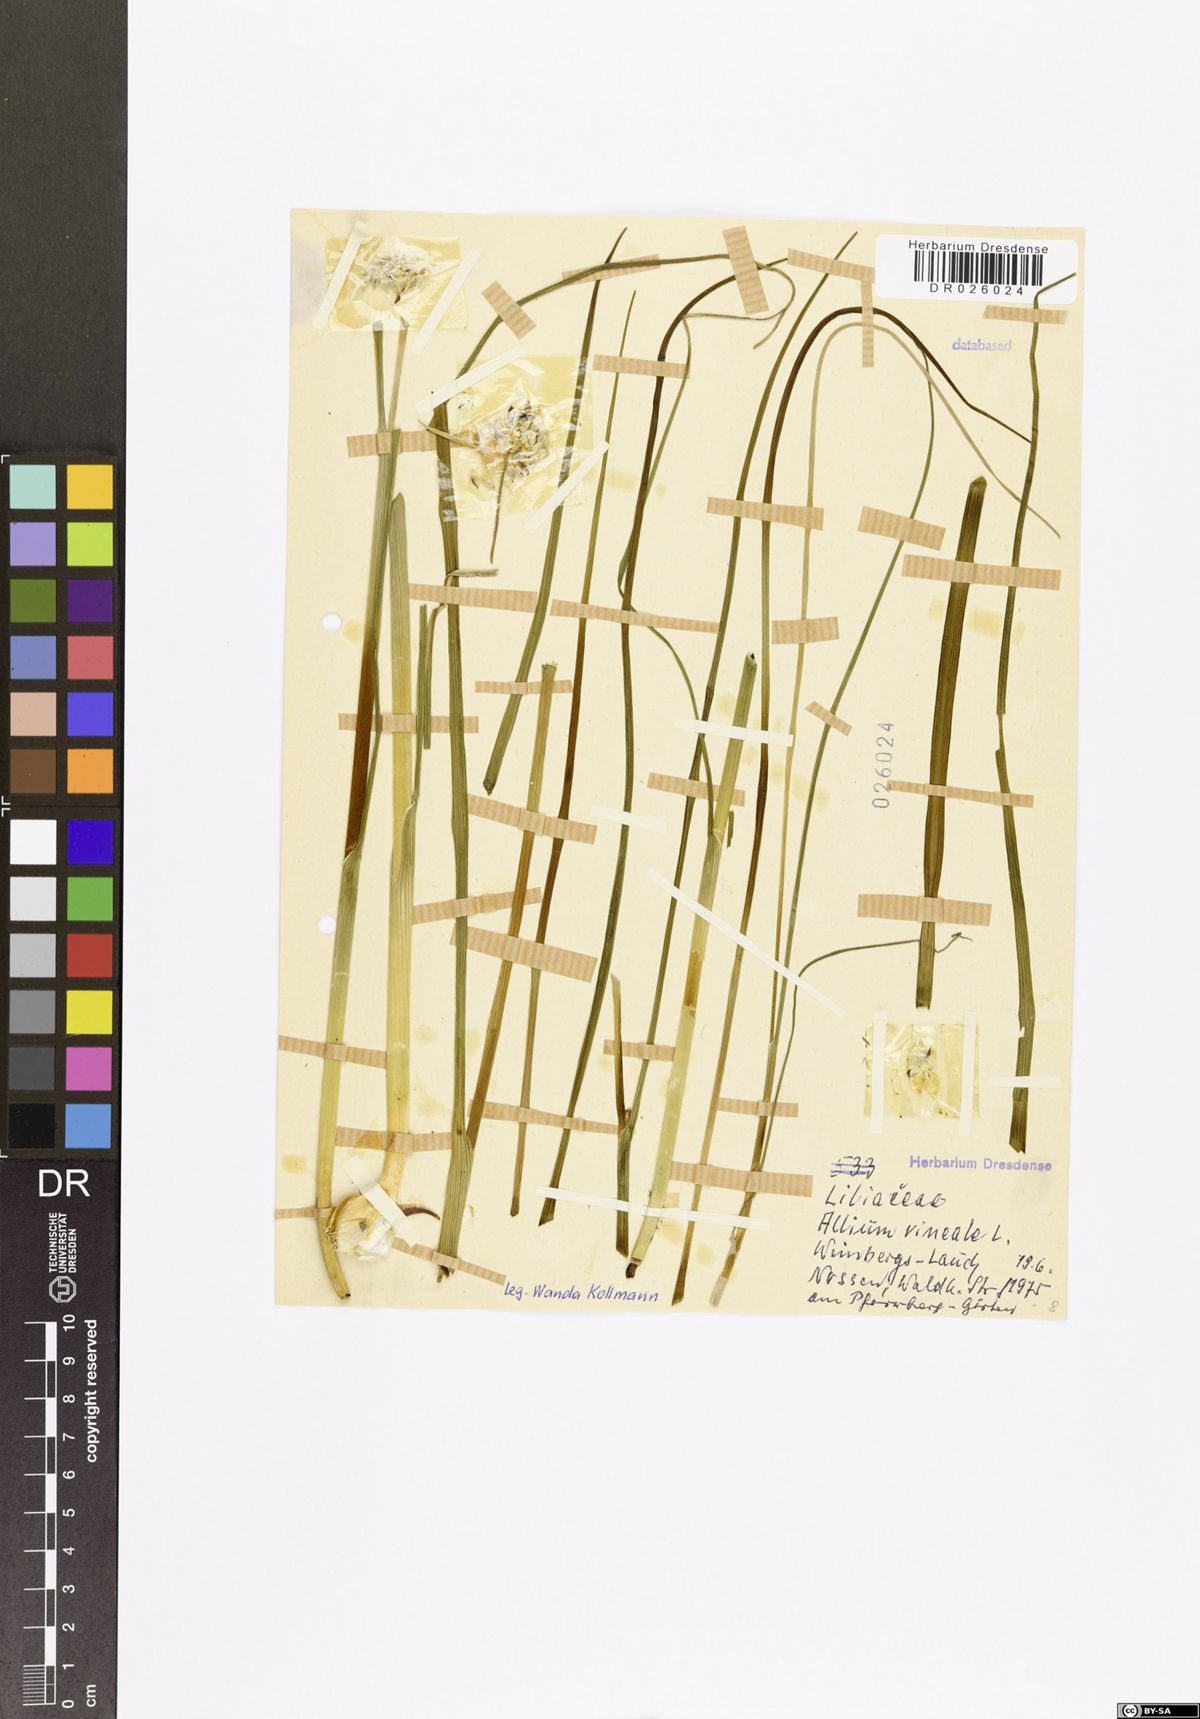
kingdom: Plantae
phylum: Tracheophyta
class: Liliopsida
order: Asparagales
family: Amaryllidaceae
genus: Allium
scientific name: Allium vineale
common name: Crow garlic
